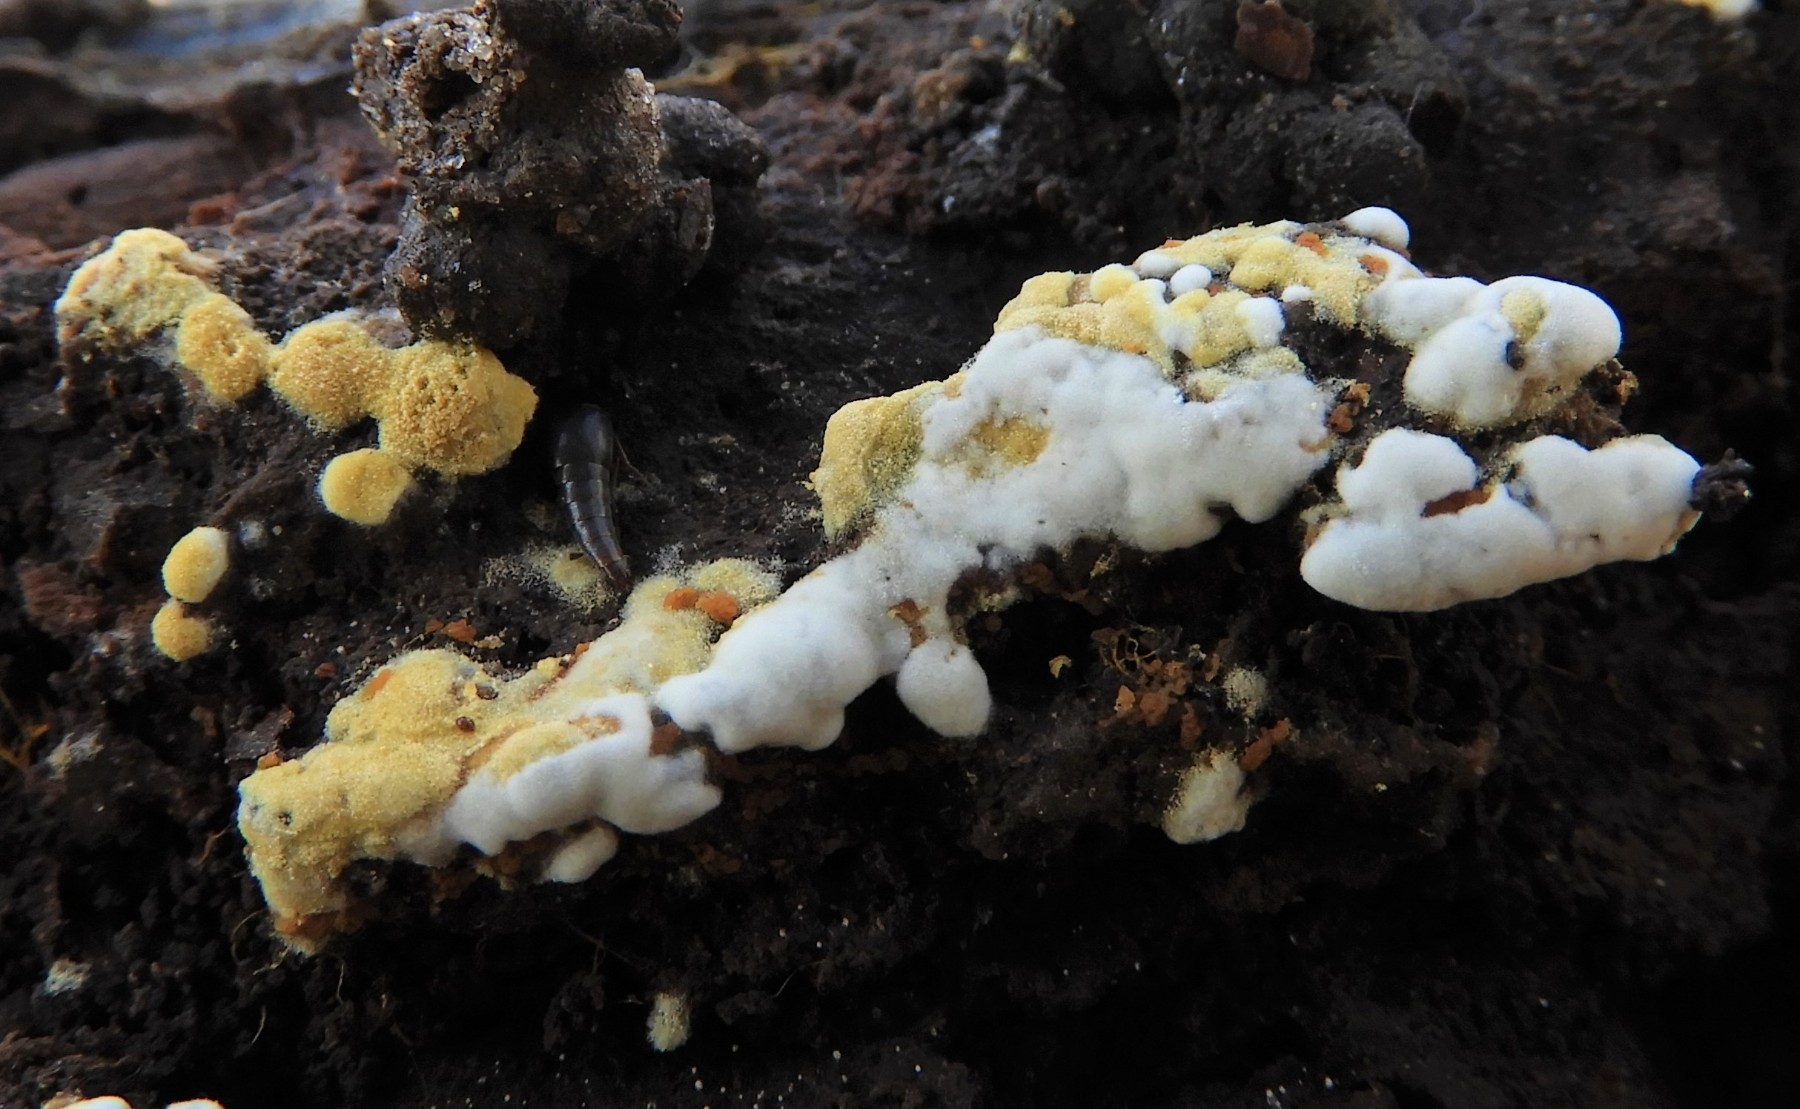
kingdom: Fungi
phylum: Basidiomycota
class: Agaricomycetes
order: Cantharellales
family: Botryobasidiaceae
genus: Botryobasidium
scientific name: Botryobasidium aureum
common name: gylden spindhinde
